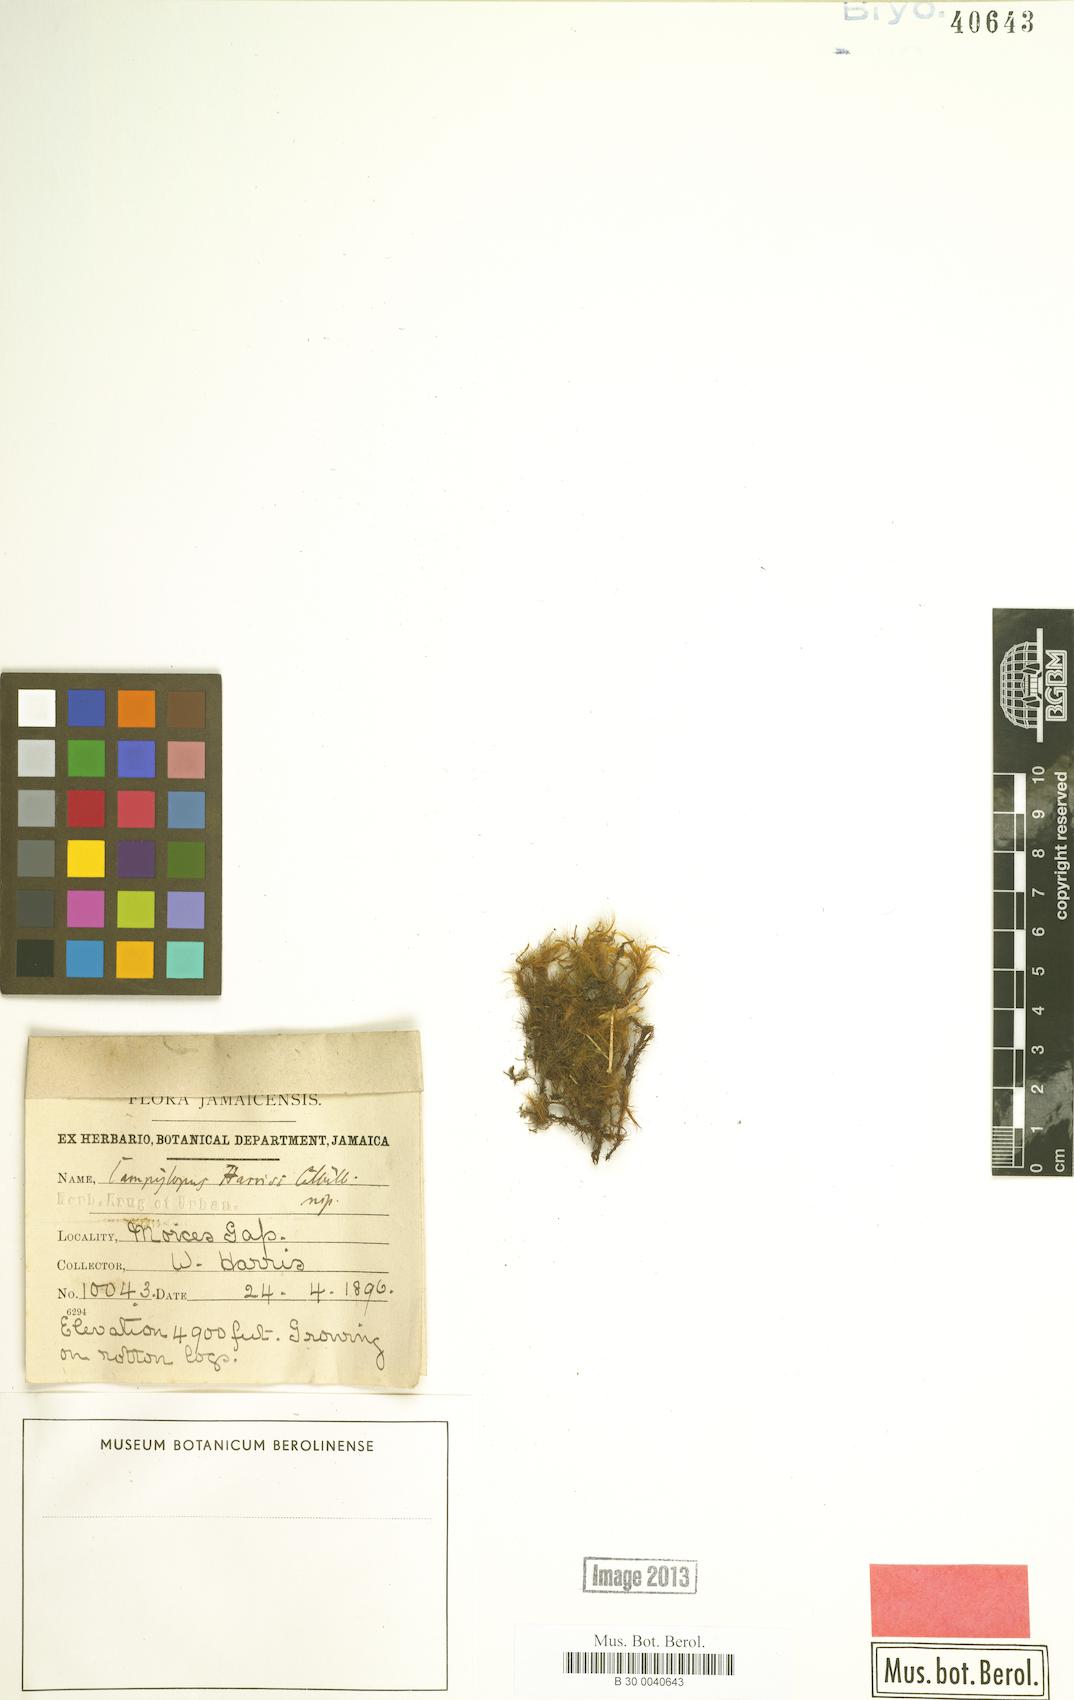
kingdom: Plantae
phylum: Bryophyta
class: Bryopsida
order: Dicranales
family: Leucobryaceae
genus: Campylopus
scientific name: Campylopus cubensis
